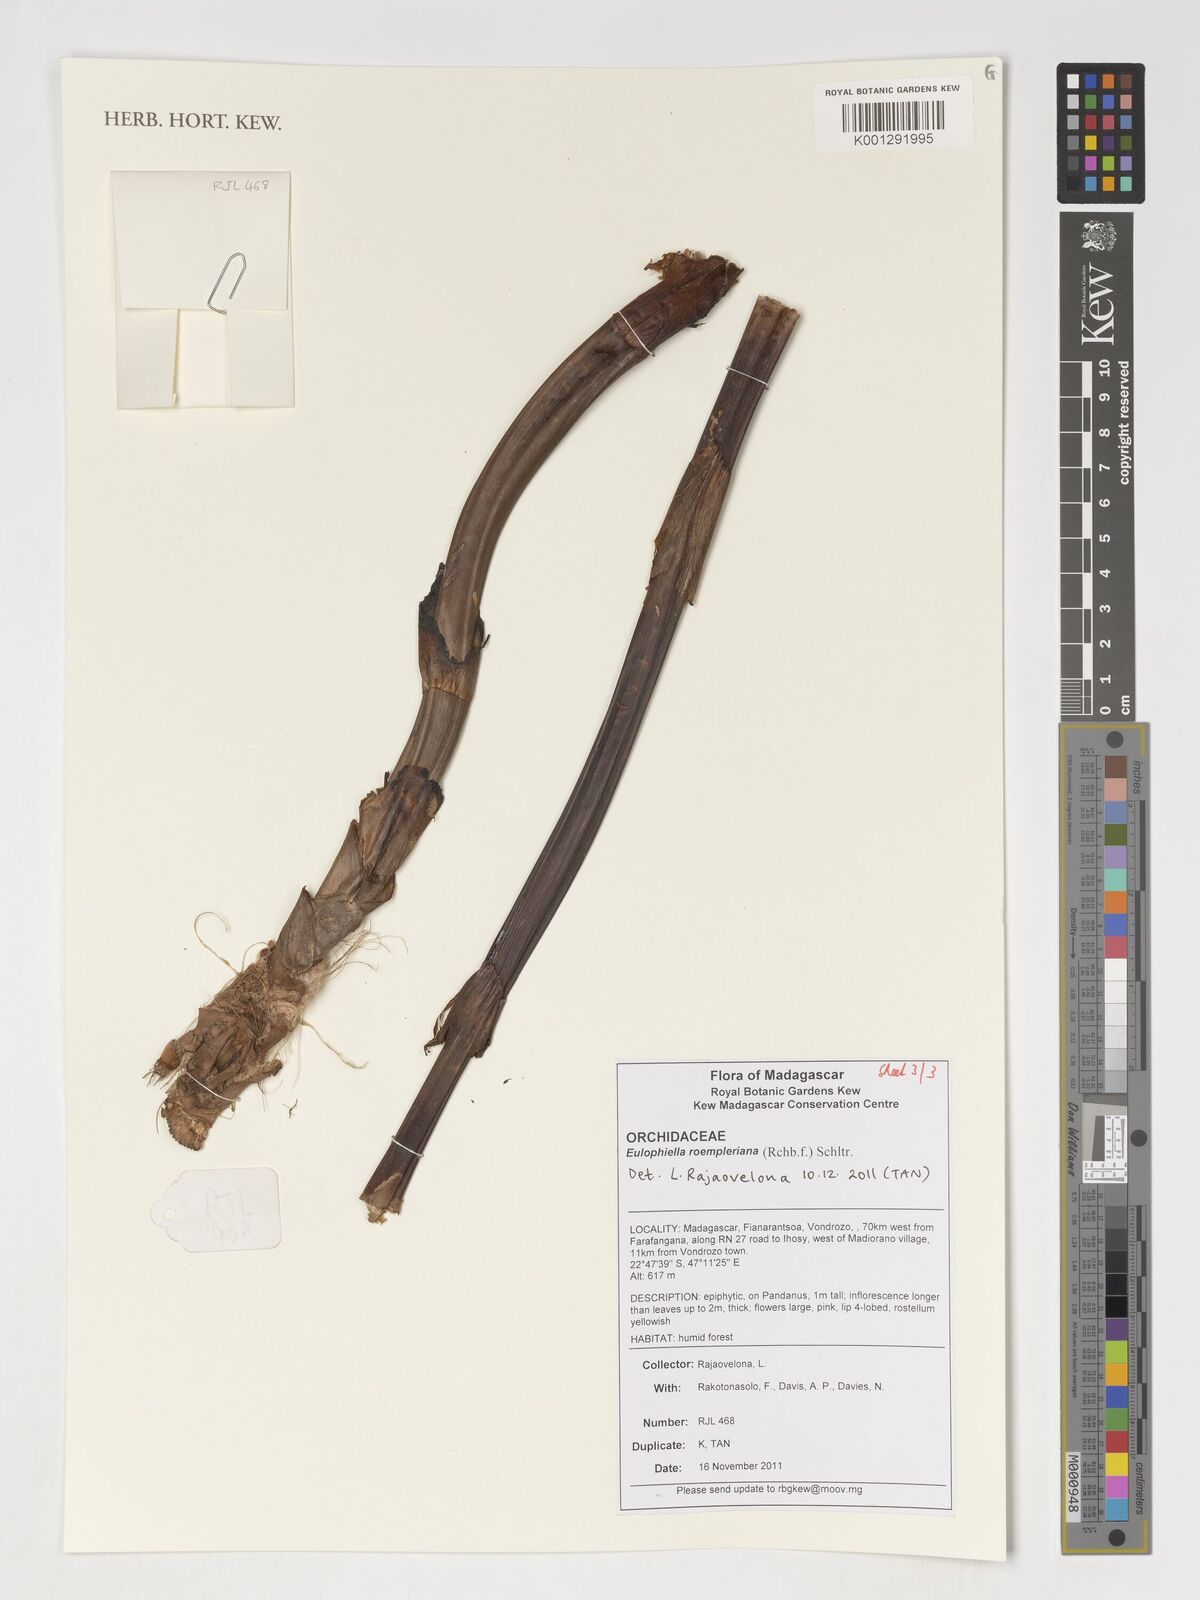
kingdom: Plantae
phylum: Tracheophyta
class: Liliopsida
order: Asparagales
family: Orchidaceae
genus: Eulophia
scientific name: Eulophia roempleriana
